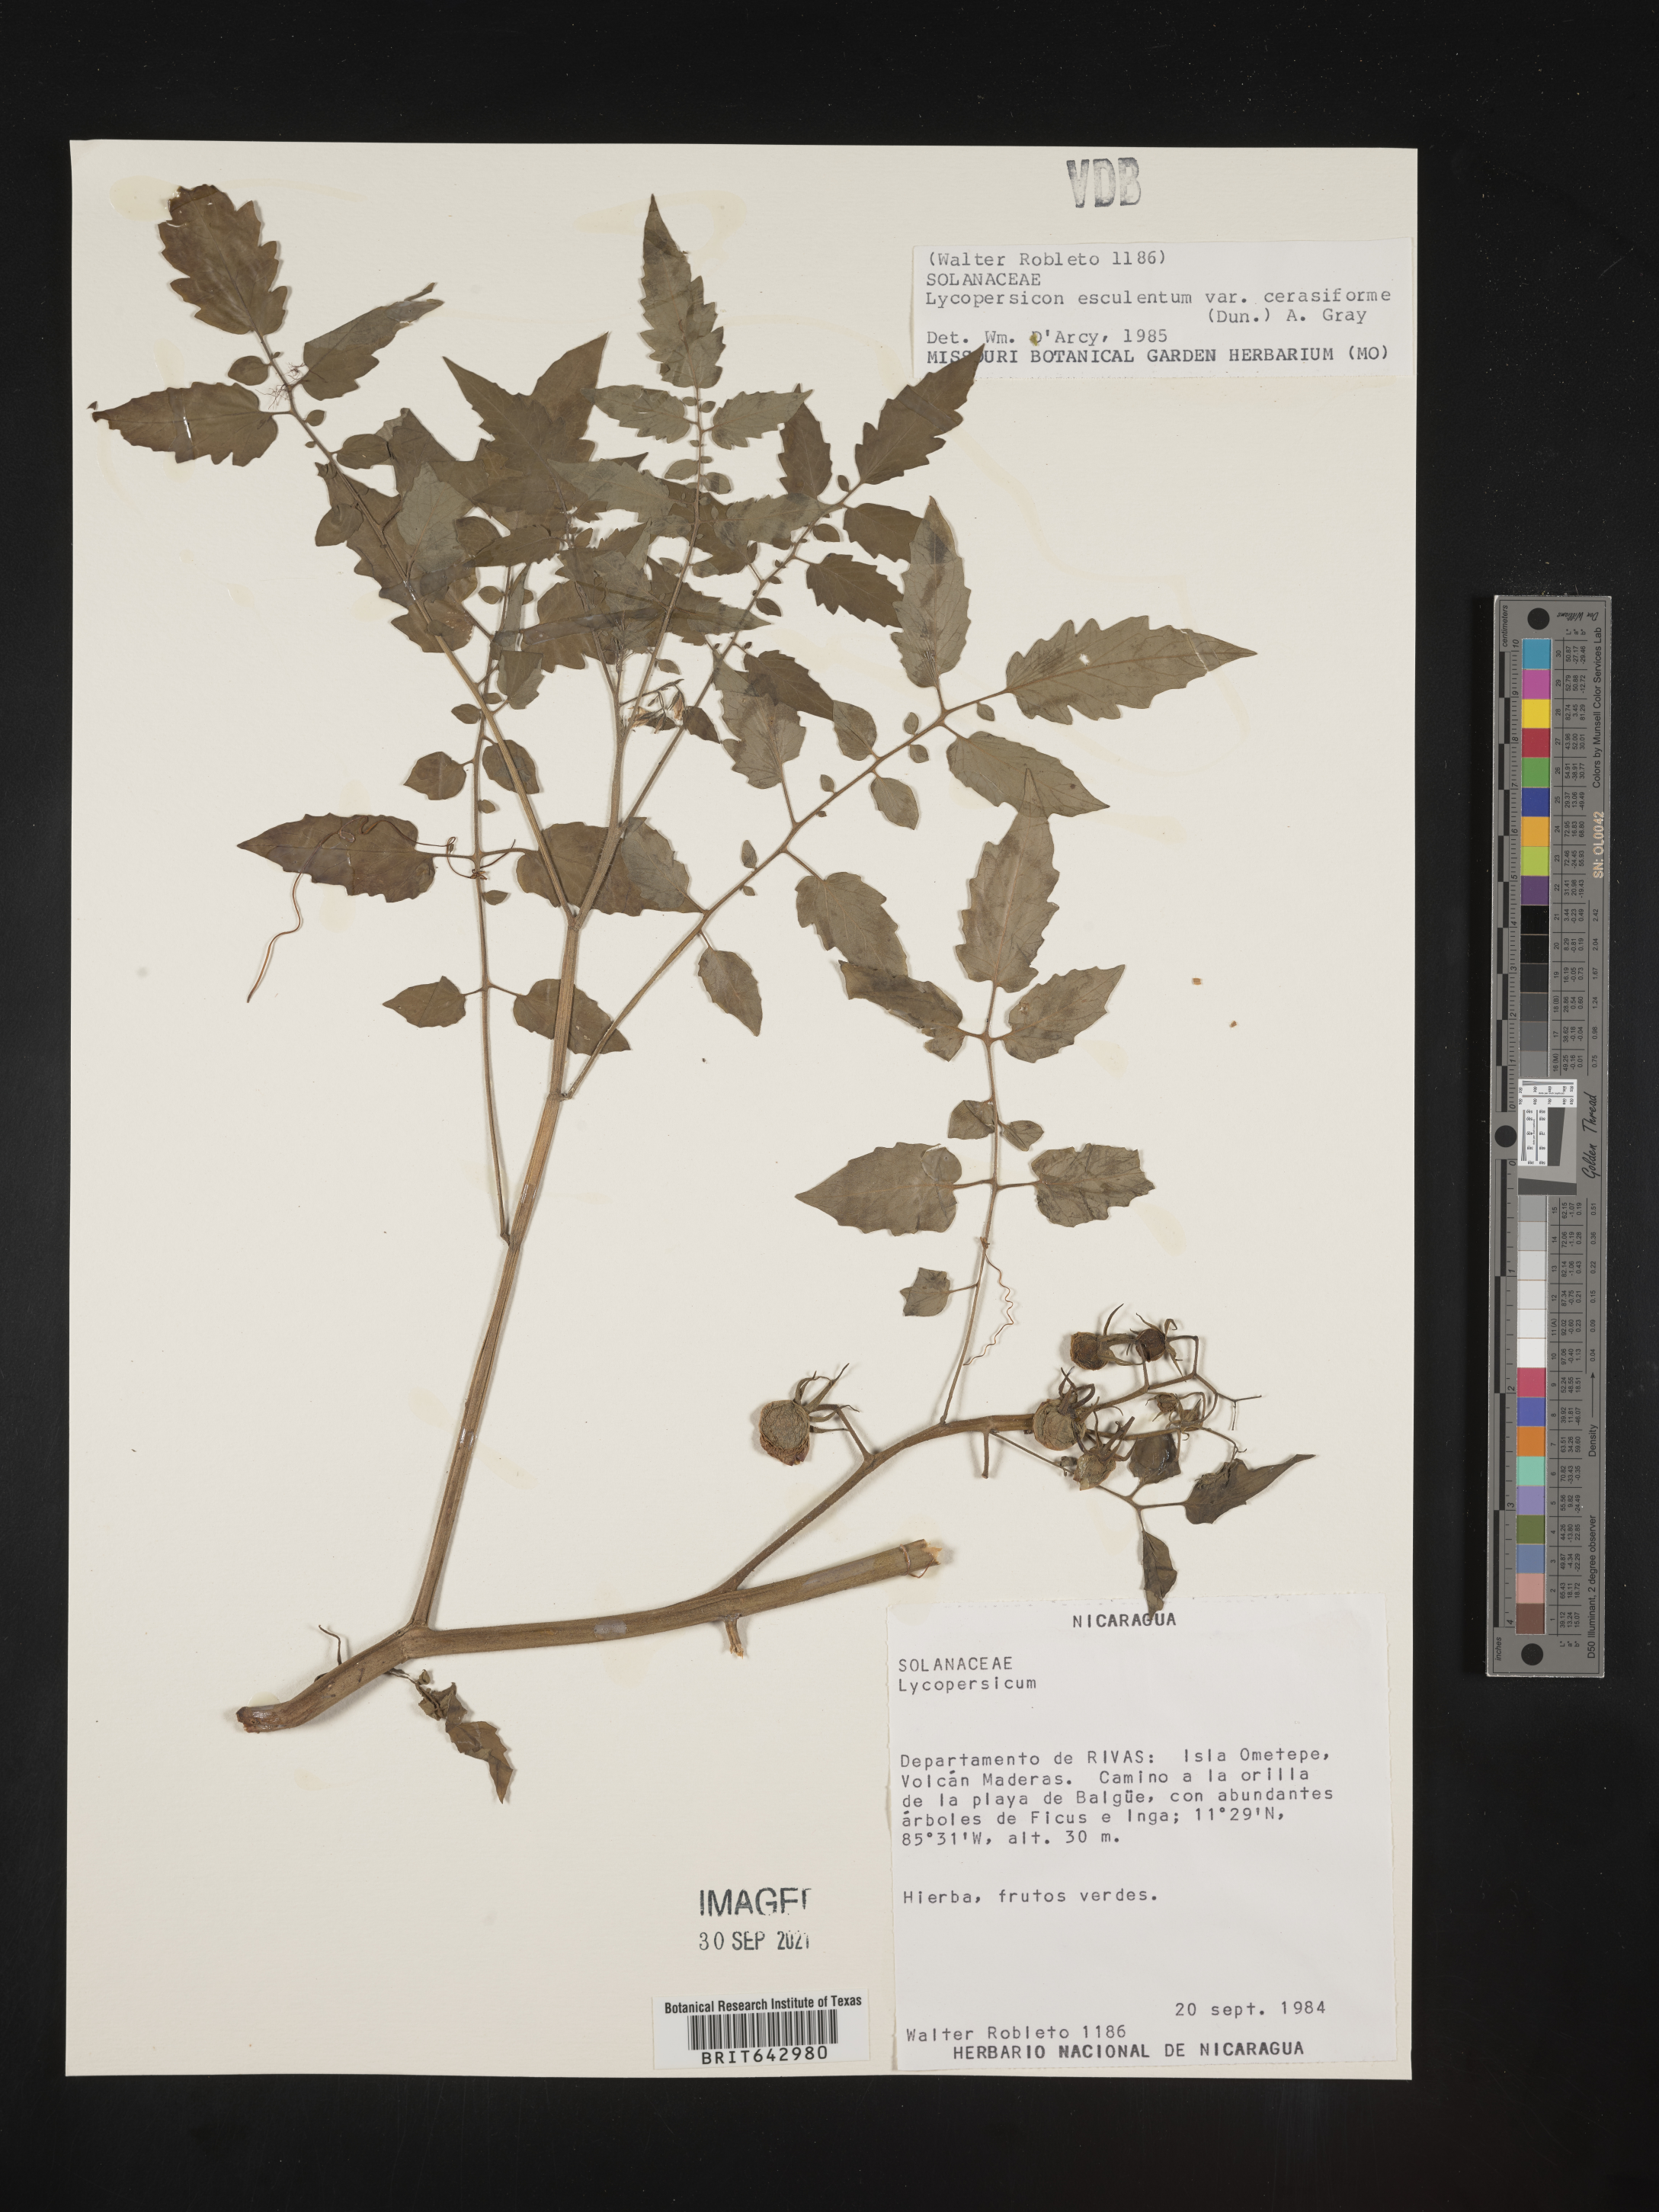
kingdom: Plantae
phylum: Tracheophyta
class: Magnoliopsida
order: Solanales
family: Solanaceae
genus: Lycopersicon
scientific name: Lycopersicon
